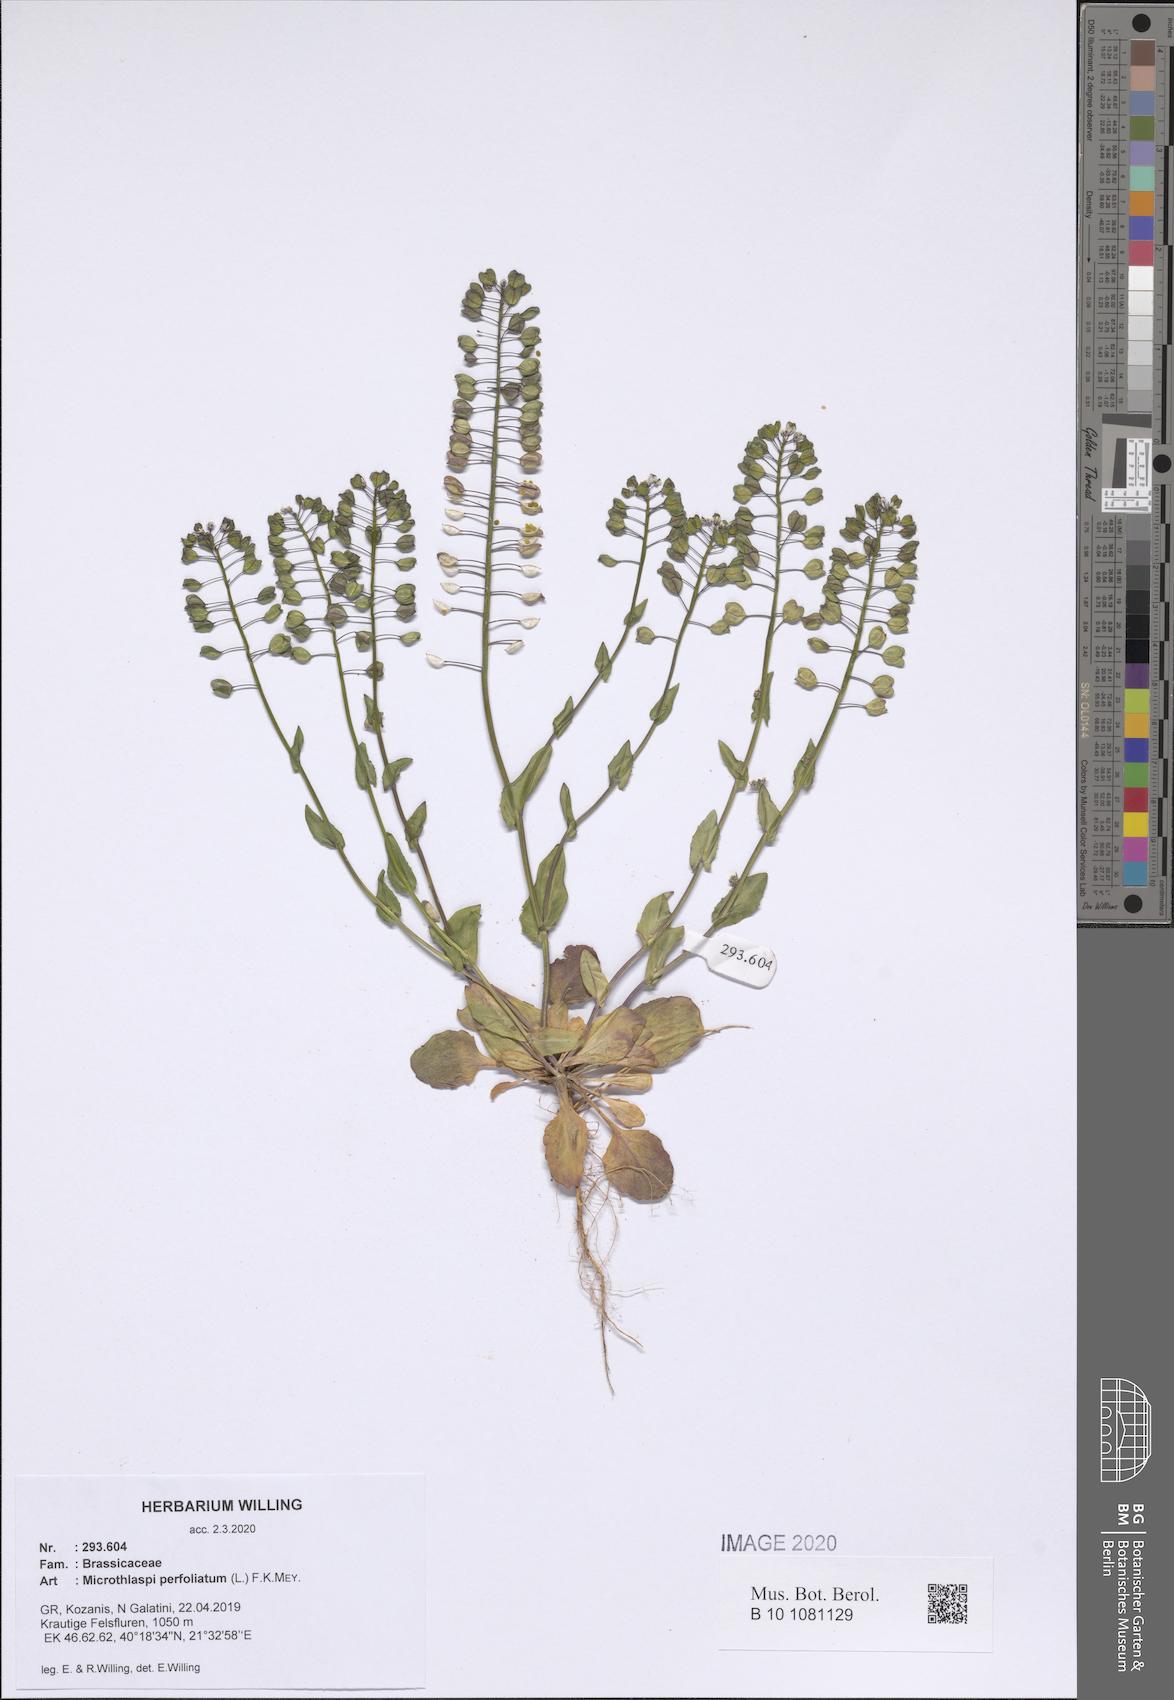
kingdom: Plantae
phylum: Tracheophyta
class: Magnoliopsida
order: Brassicales
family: Brassicaceae
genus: Noccaea
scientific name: Noccaea perfoliata
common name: Perfoliate pennycress
